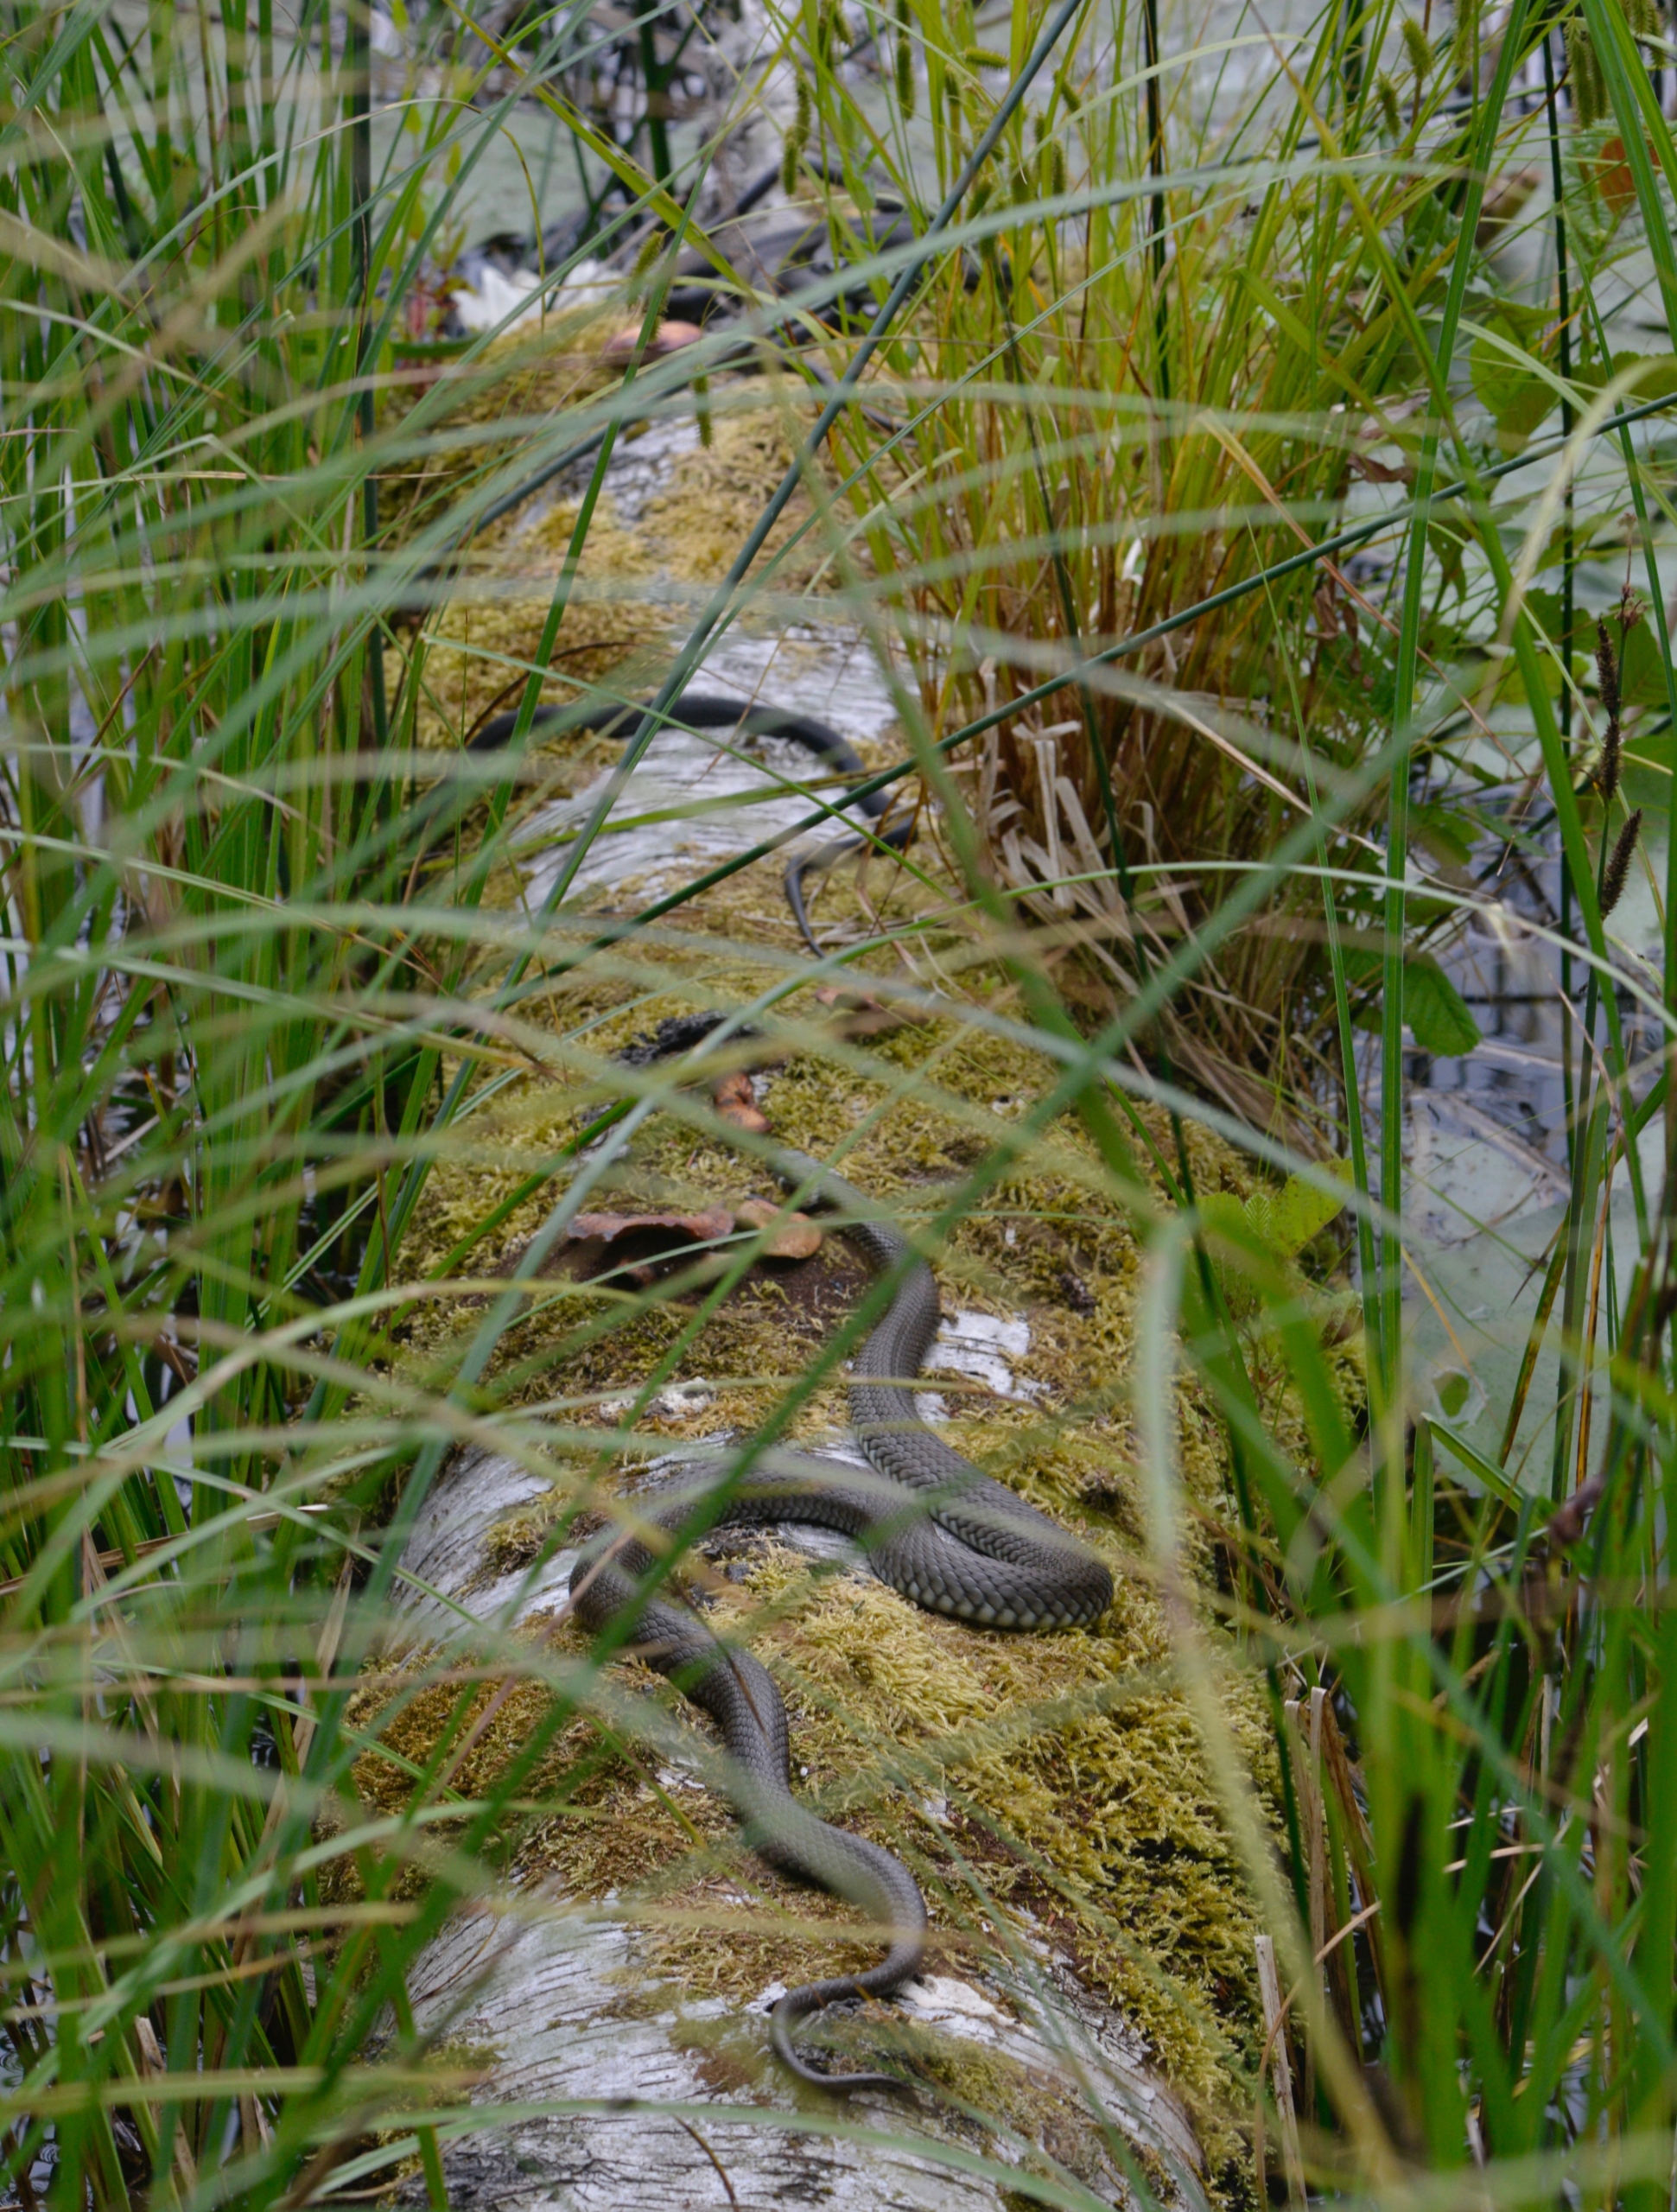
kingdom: Animalia
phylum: Chordata
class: Squamata
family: Colubridae
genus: Natrix
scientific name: Natrix natrix
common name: Snog
